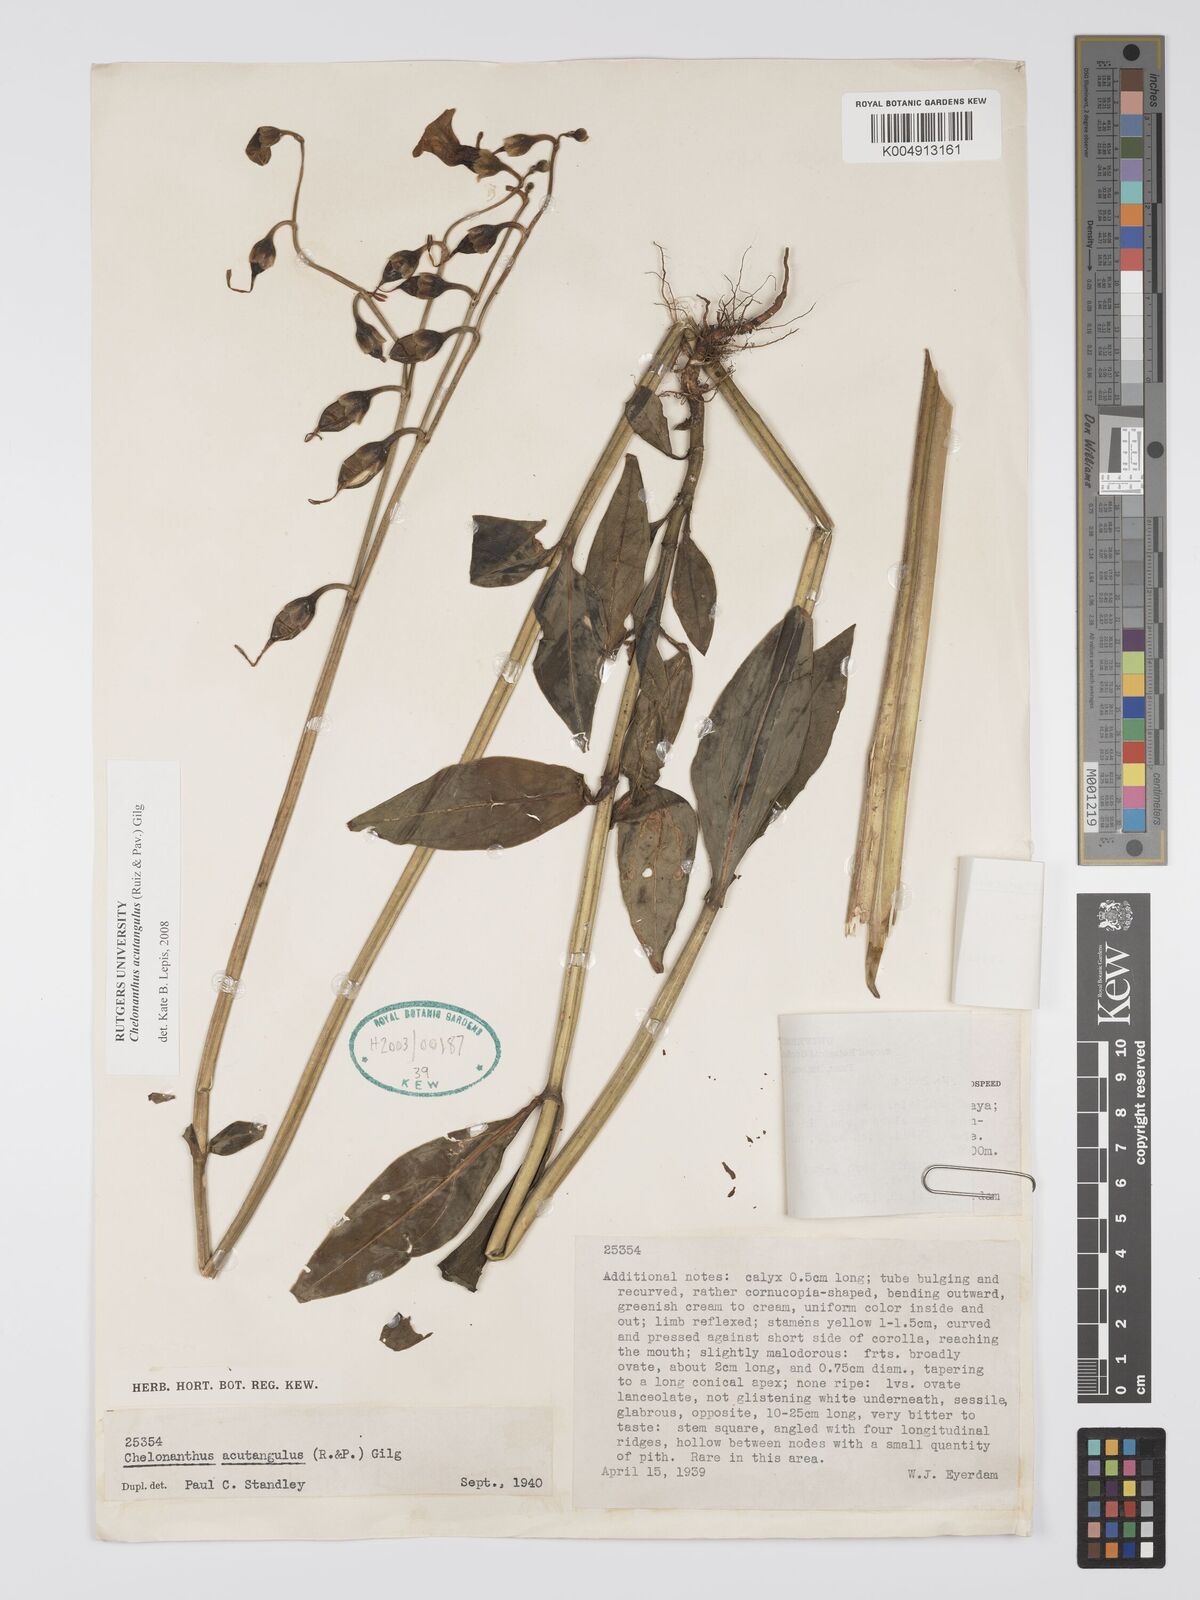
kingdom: Plantae
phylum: Tracheophyta
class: Magnoliopsida
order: Gentianales
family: Gentianaceae
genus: Chelonanthus
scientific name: Chelonanthus alatus
